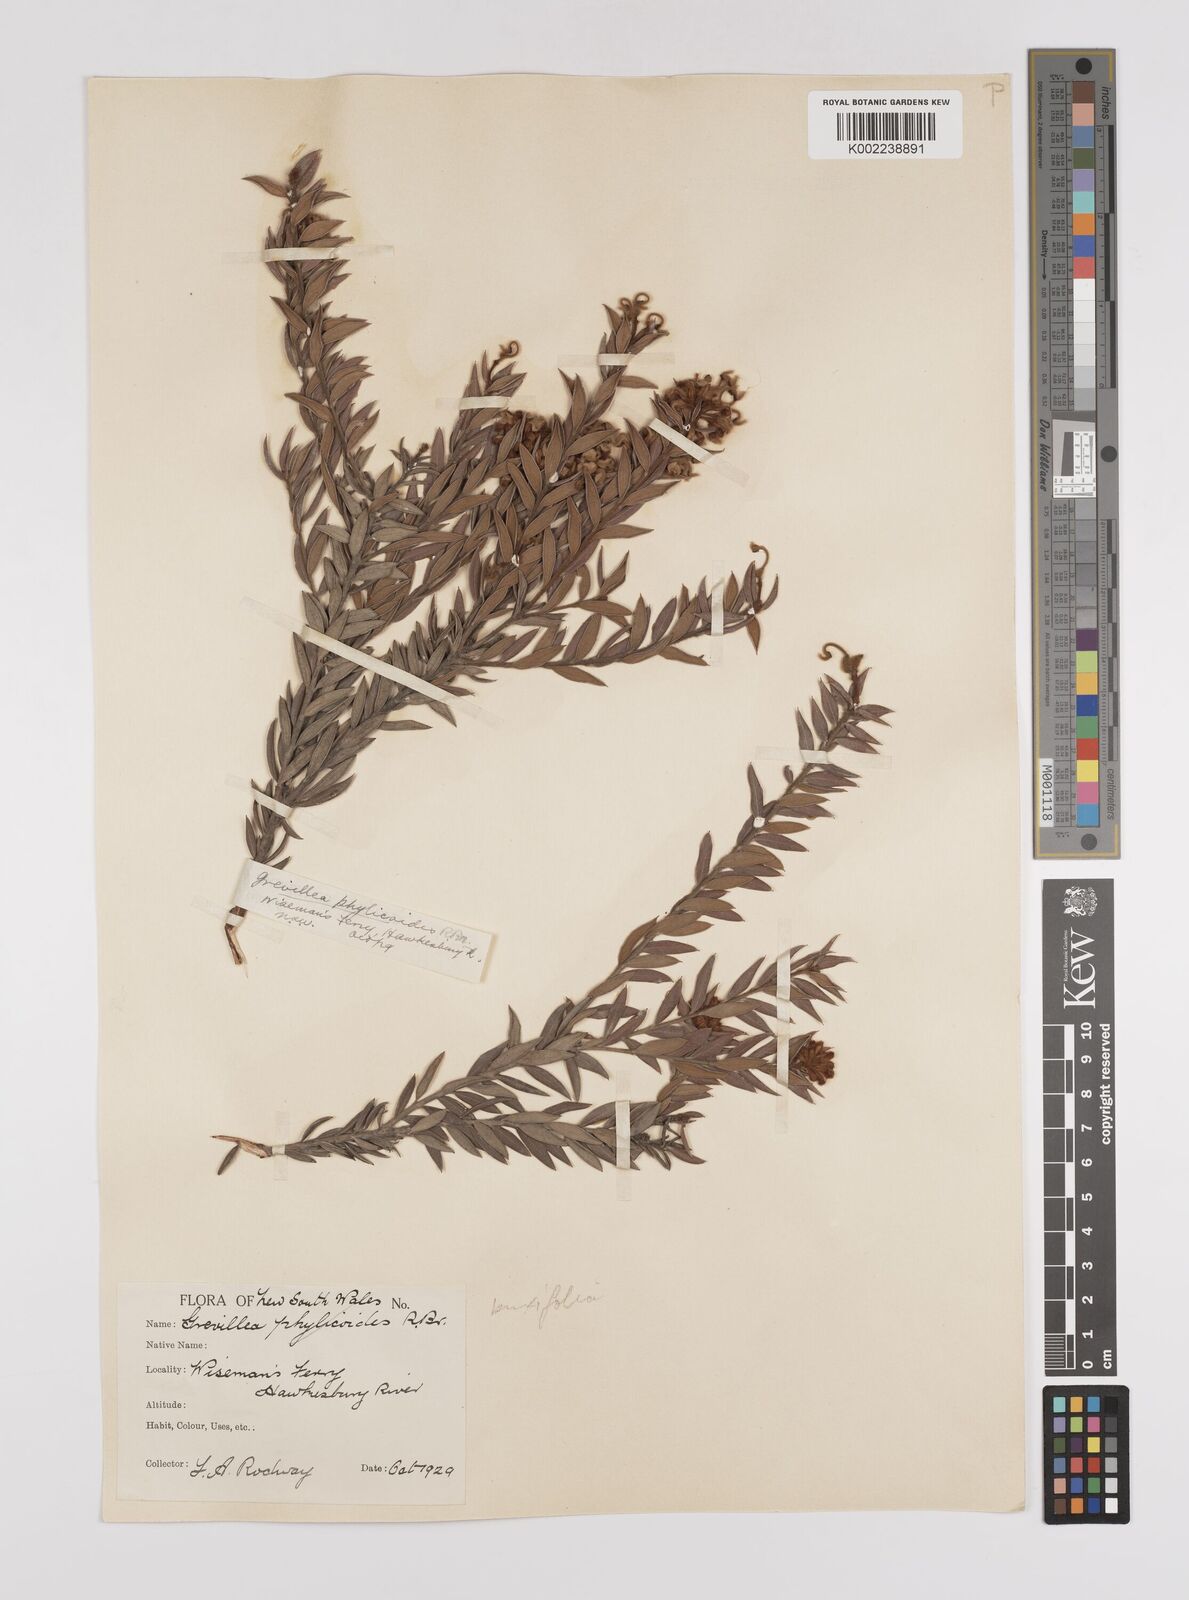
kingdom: Plantae
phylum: Tracheophyta
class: Magnoliopsida
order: Proteales
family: Proteaceae
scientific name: Proteaceae
